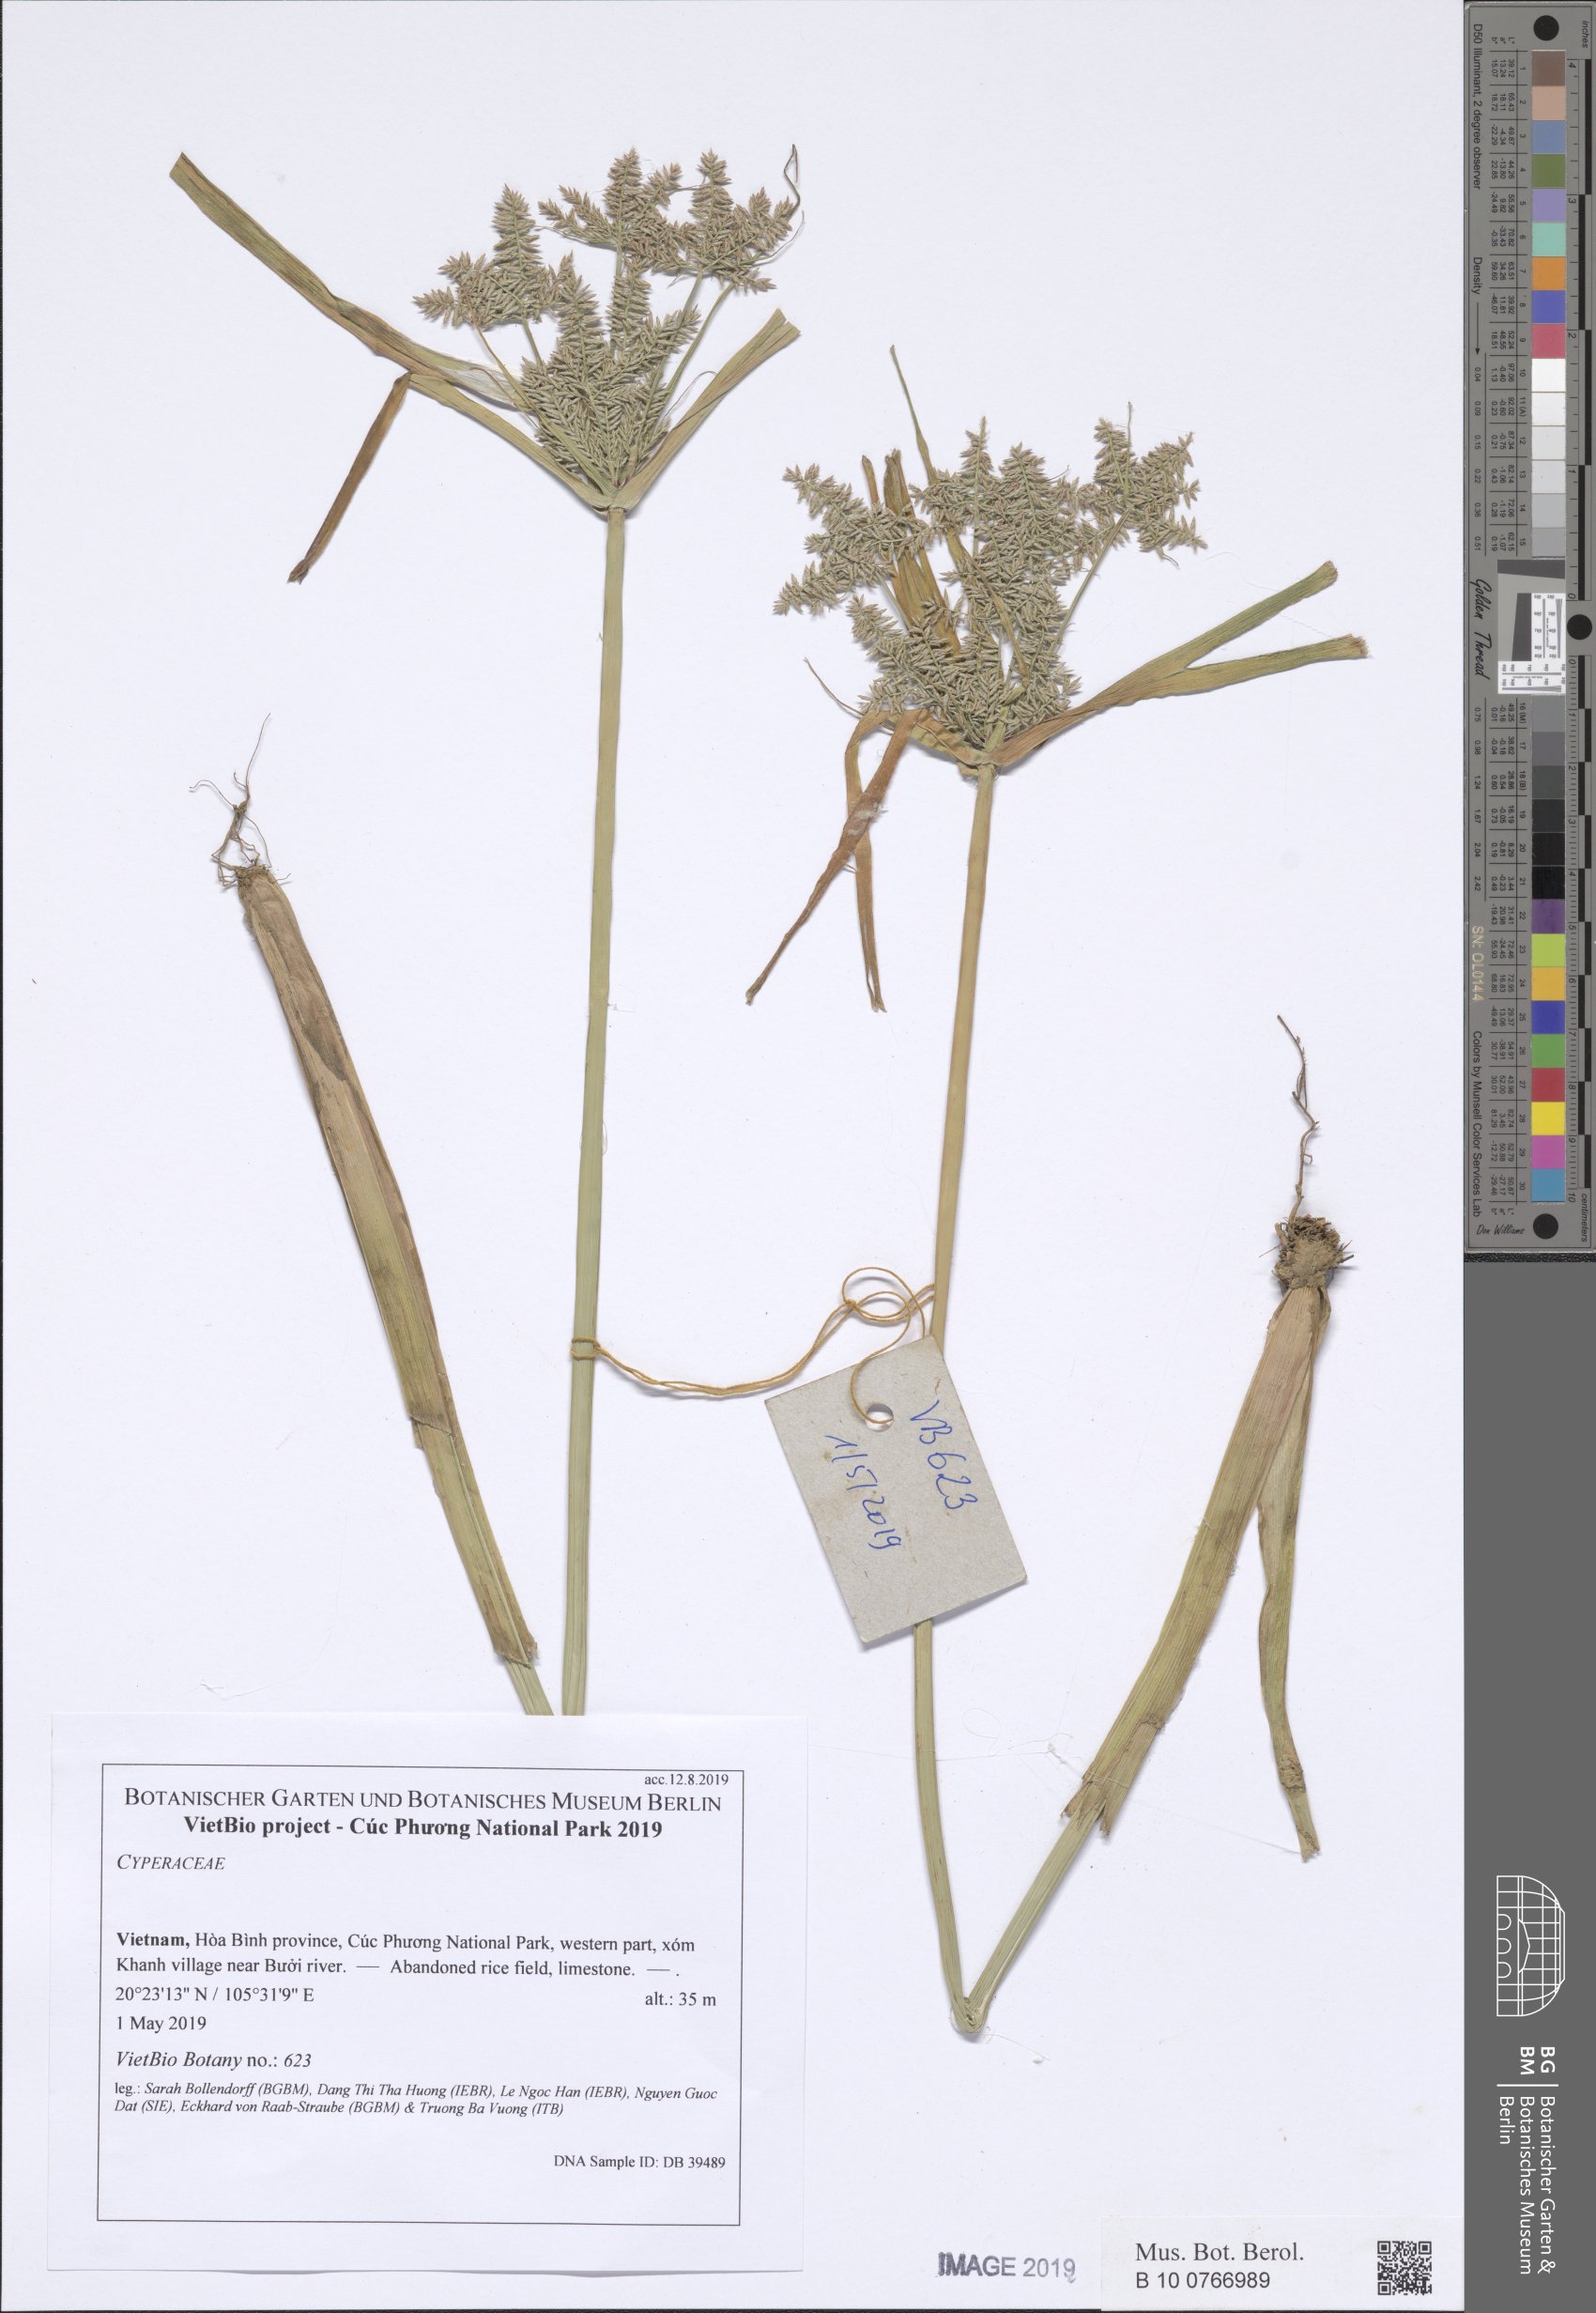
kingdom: Plantae
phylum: Tracheophyta
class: Liliopsida
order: Poales
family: Cyperaceae
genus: Cyperus
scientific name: Cyperus digitatus
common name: Finger flatsedge
